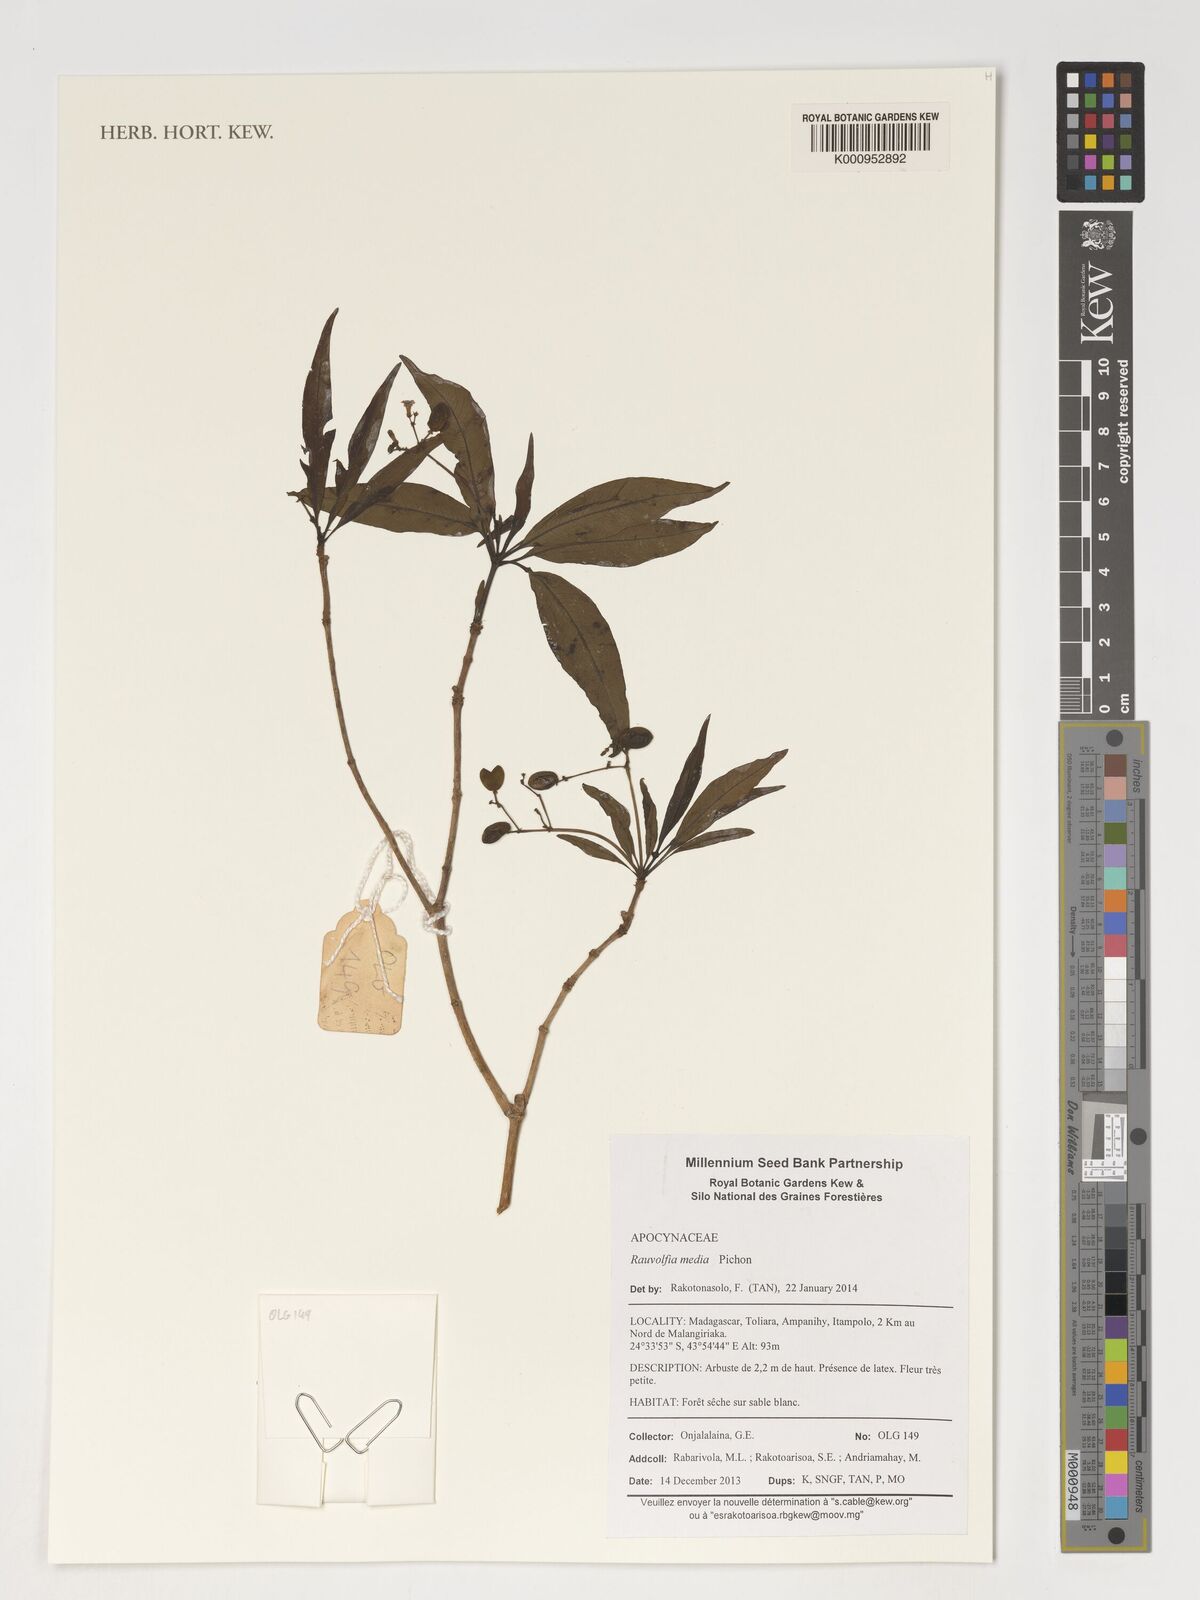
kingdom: Plantae
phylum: Tracheophyta
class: Magnoliopsida
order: Gentianales
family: Apocynaceae
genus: Rauvolfia
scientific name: Rauvolfia media
